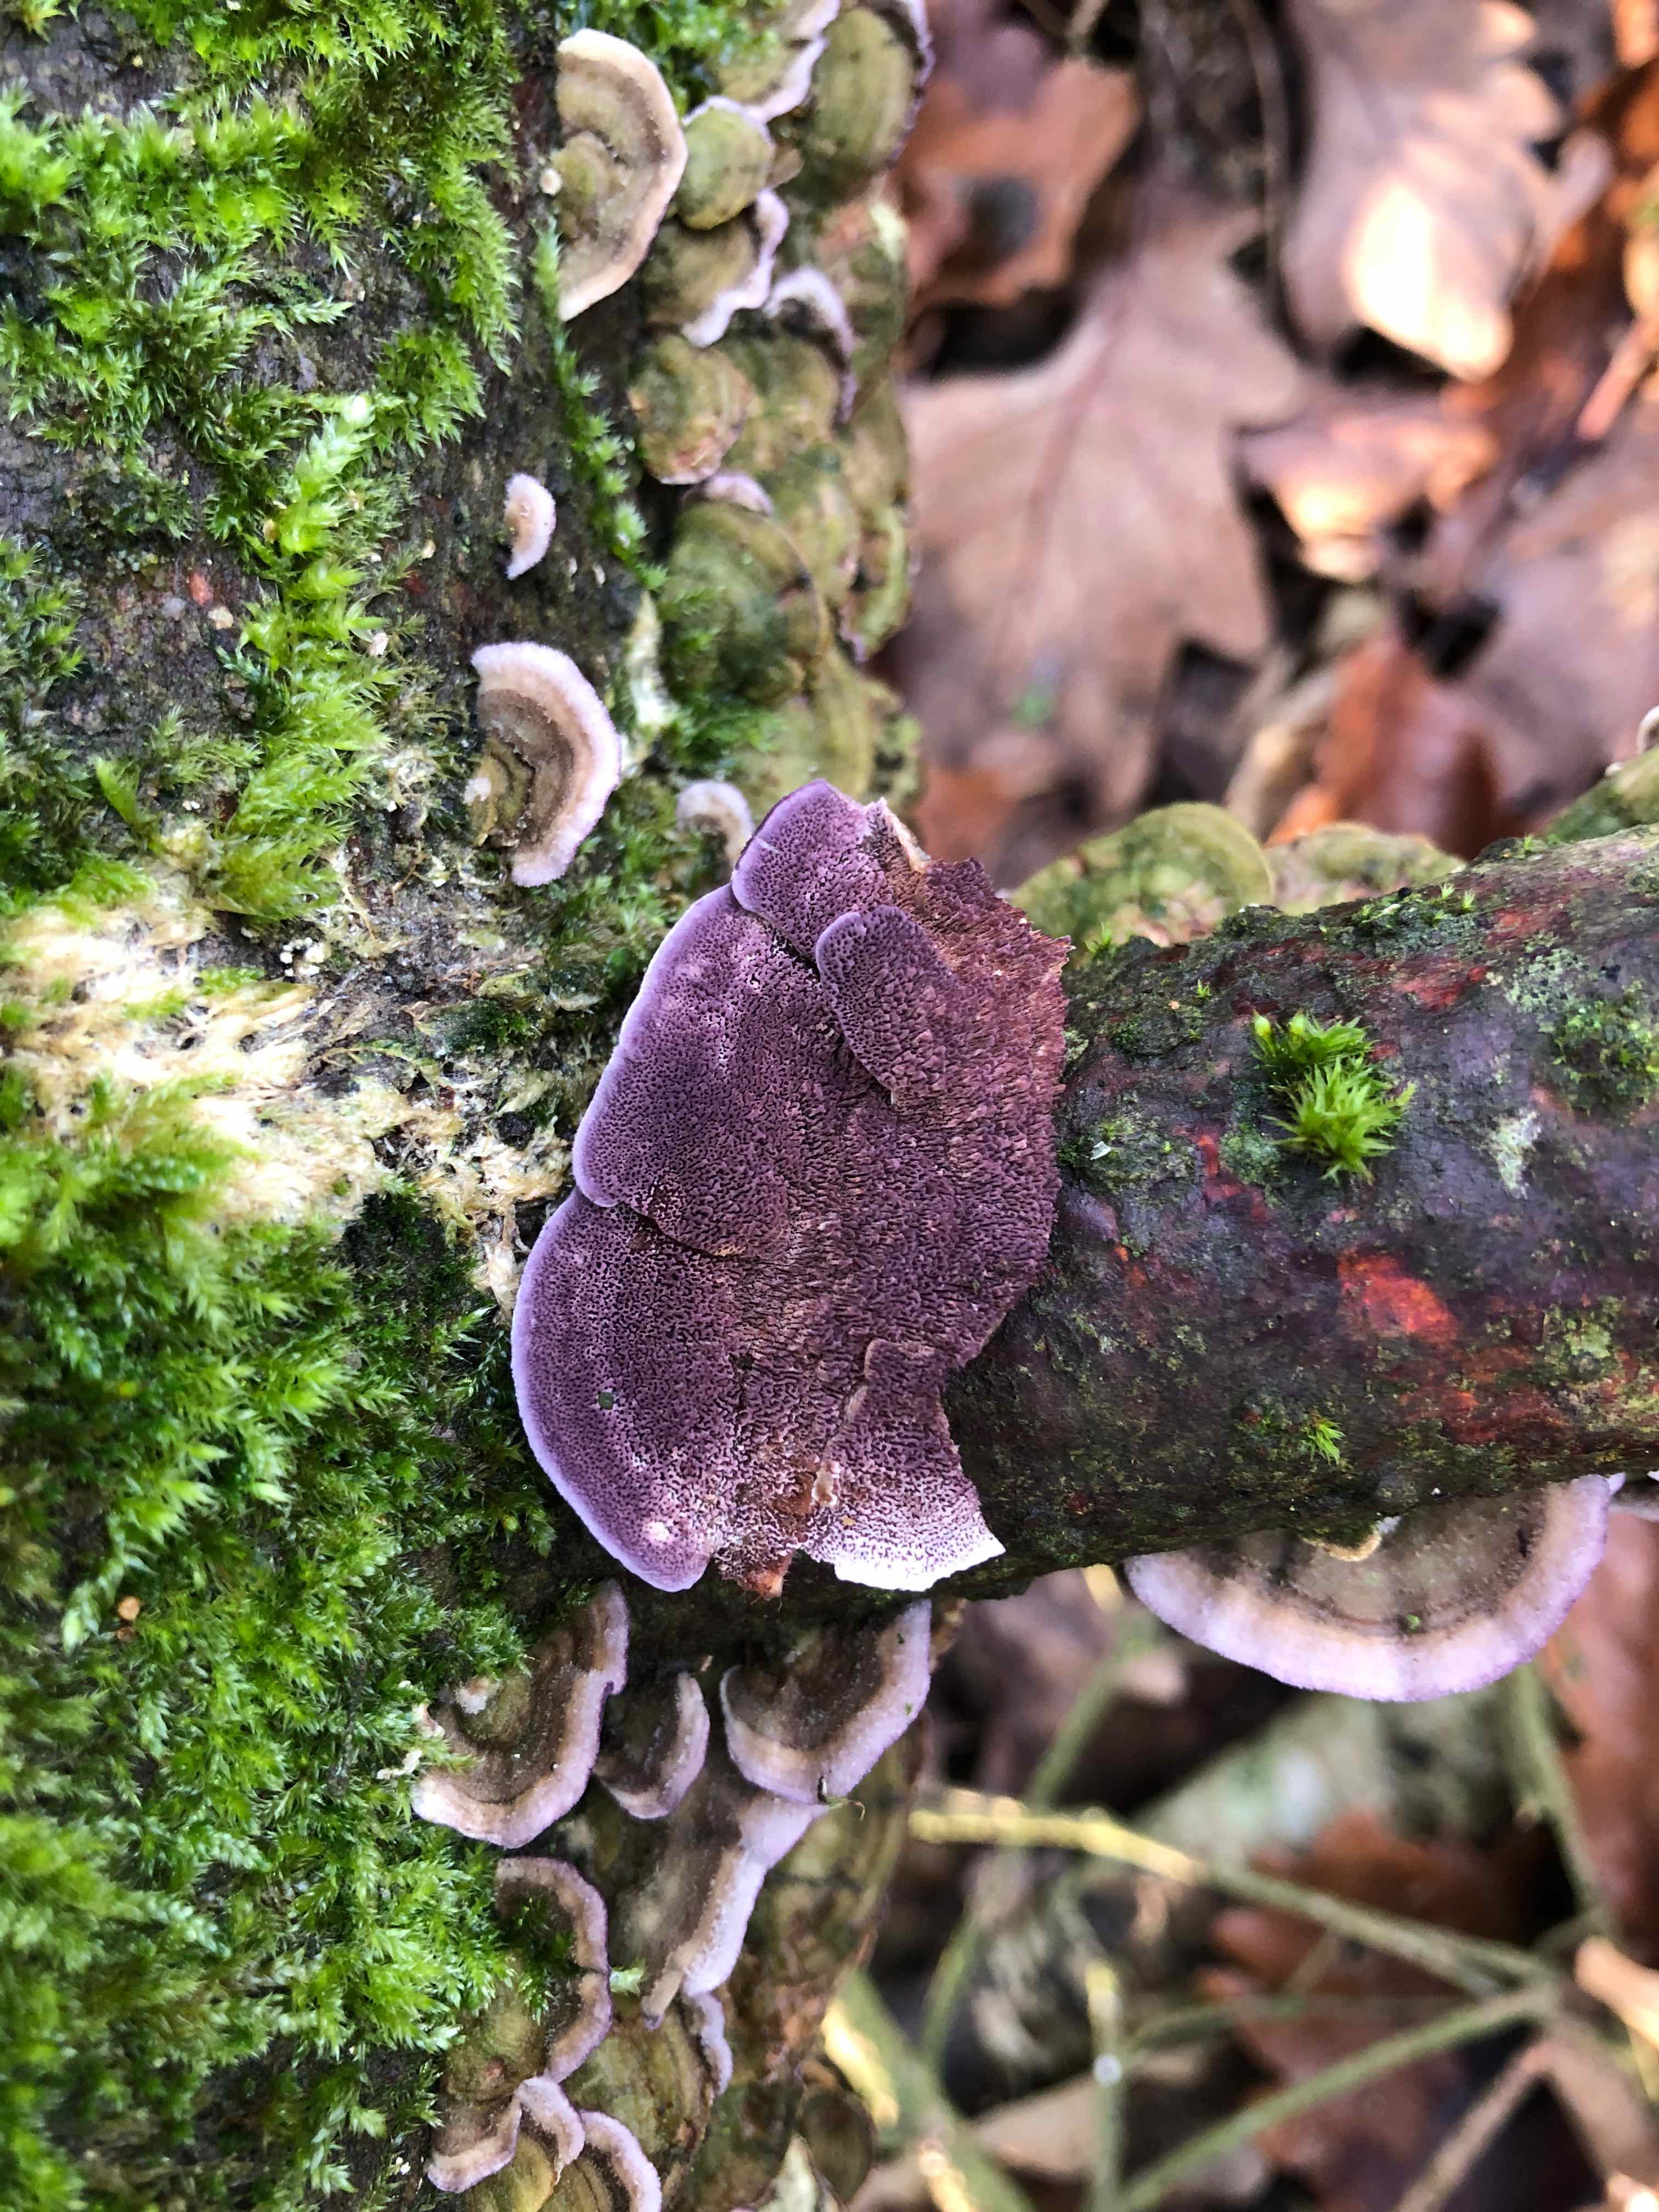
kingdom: Fungi
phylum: Basidiomycota
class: Agaricomycetes
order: Hymenochaetales
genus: Trichaptum
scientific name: Trichaptum abietinum
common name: almindelig violporesvamp
